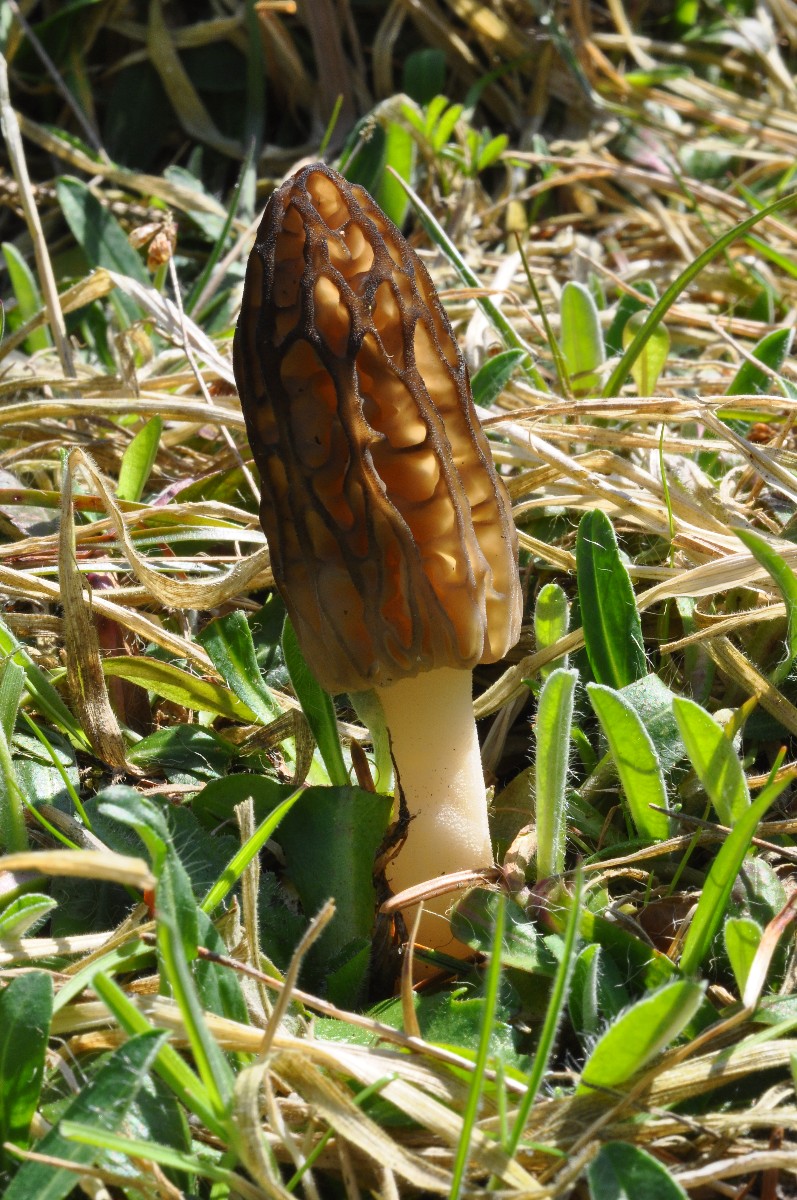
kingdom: Fungi
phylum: Ascomycota
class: Pezizomycetes
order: Pezizales
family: Morchellaceae
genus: Morchella
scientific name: Morchella esculenta
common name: Morel
